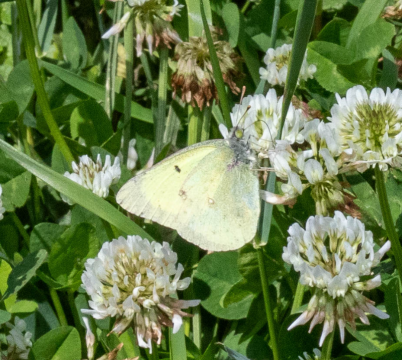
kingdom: Animalia
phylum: Arthropoda
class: Insecta
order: Lepidoptera
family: Pieridae
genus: Colias
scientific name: Colias philodice
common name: Clouded Sulphur
